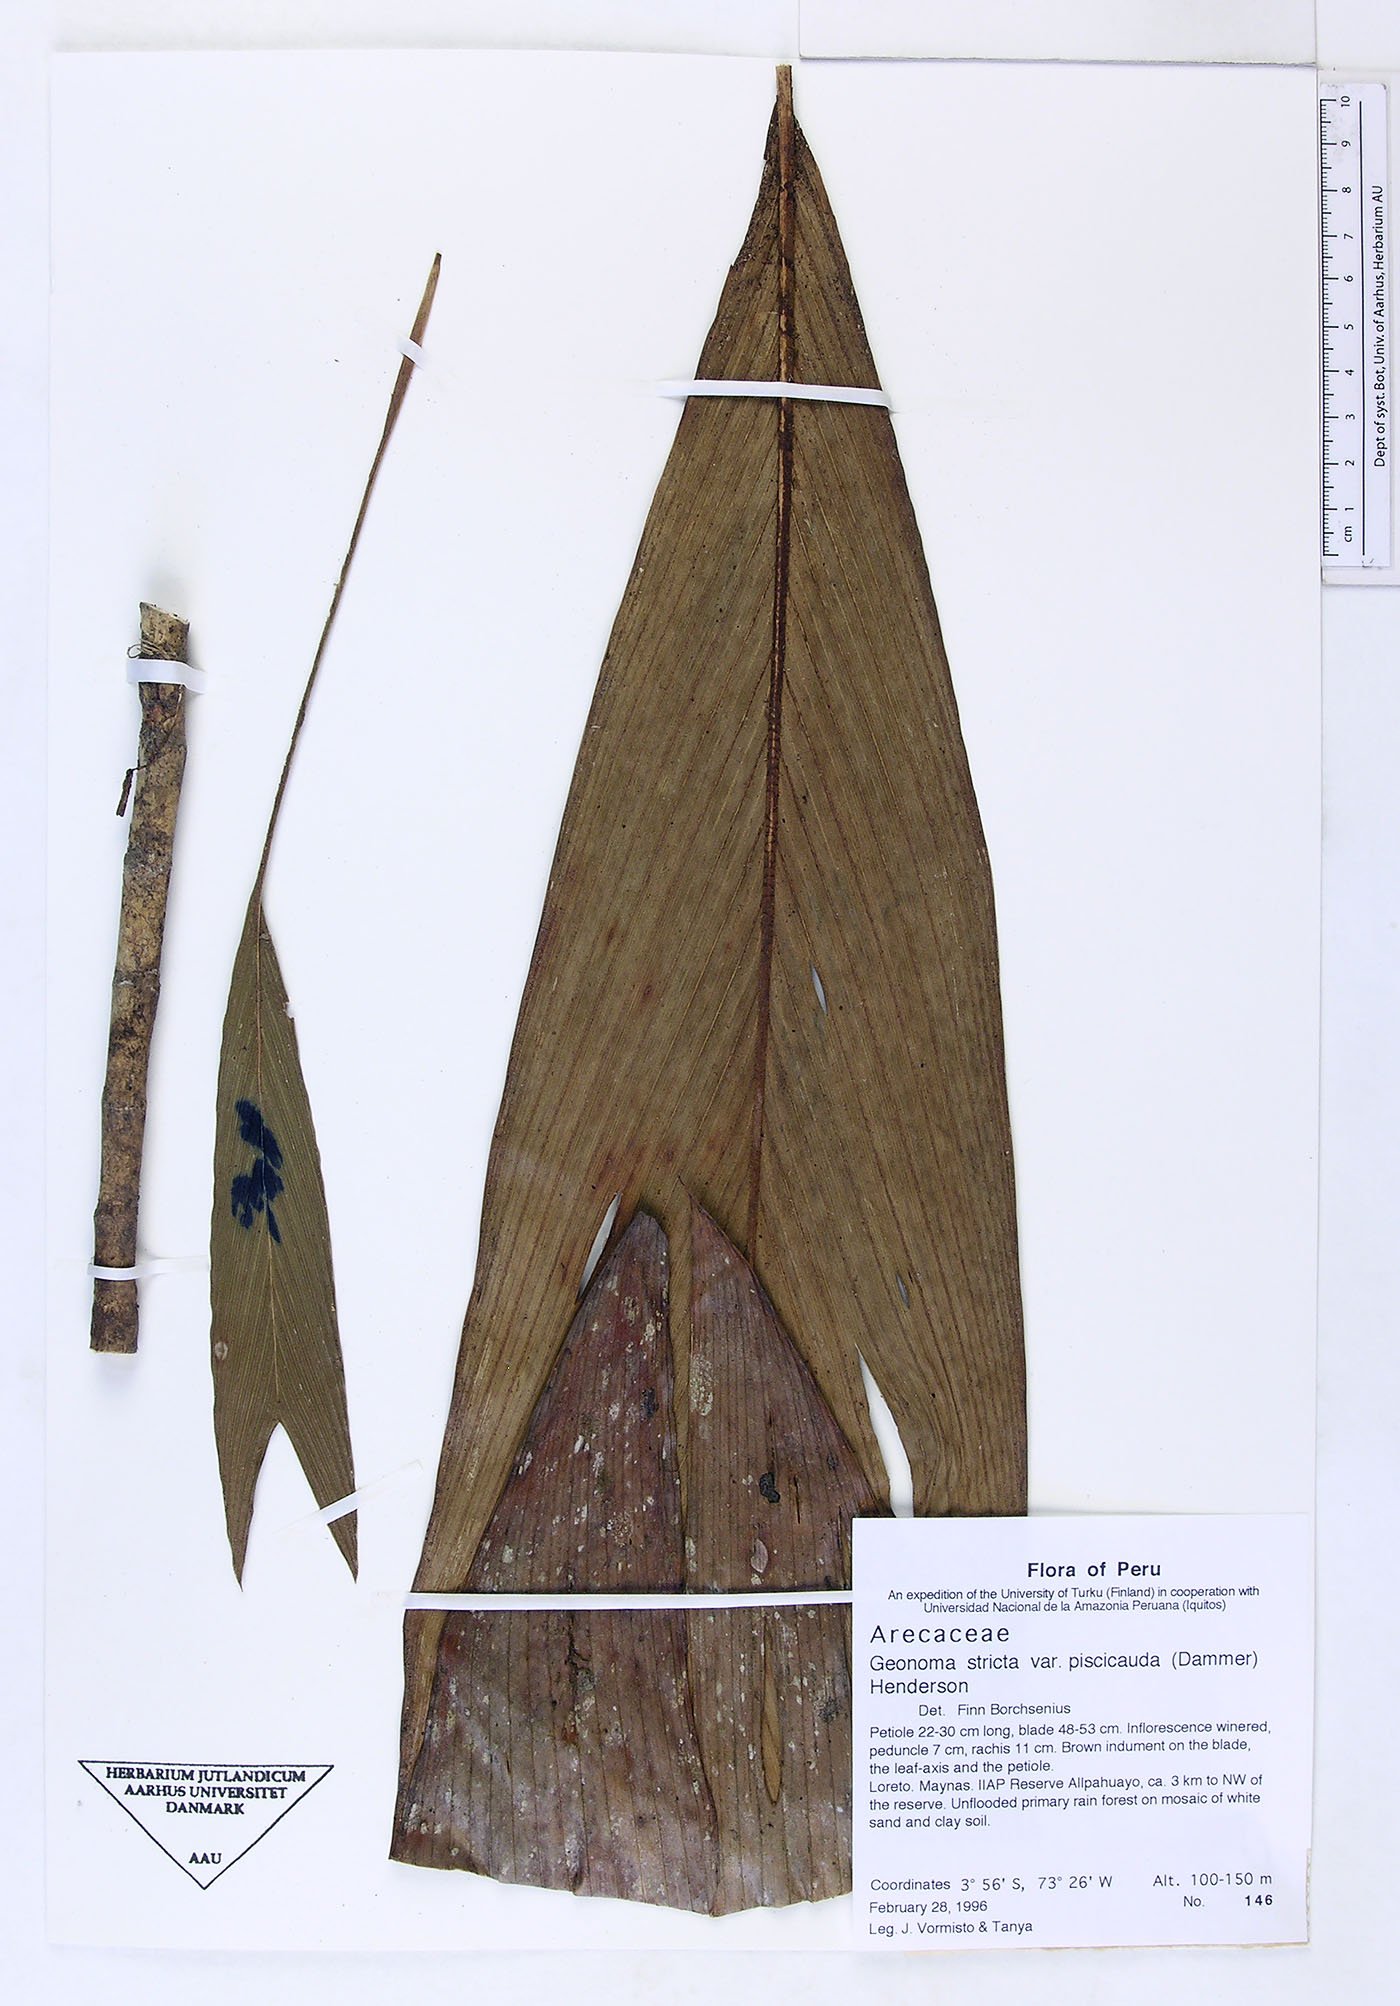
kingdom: Plantae
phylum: Tracheophyta
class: Liliopsida
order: Arecales
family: Arecaceae
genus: Geonoma
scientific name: Geonoma stricta
